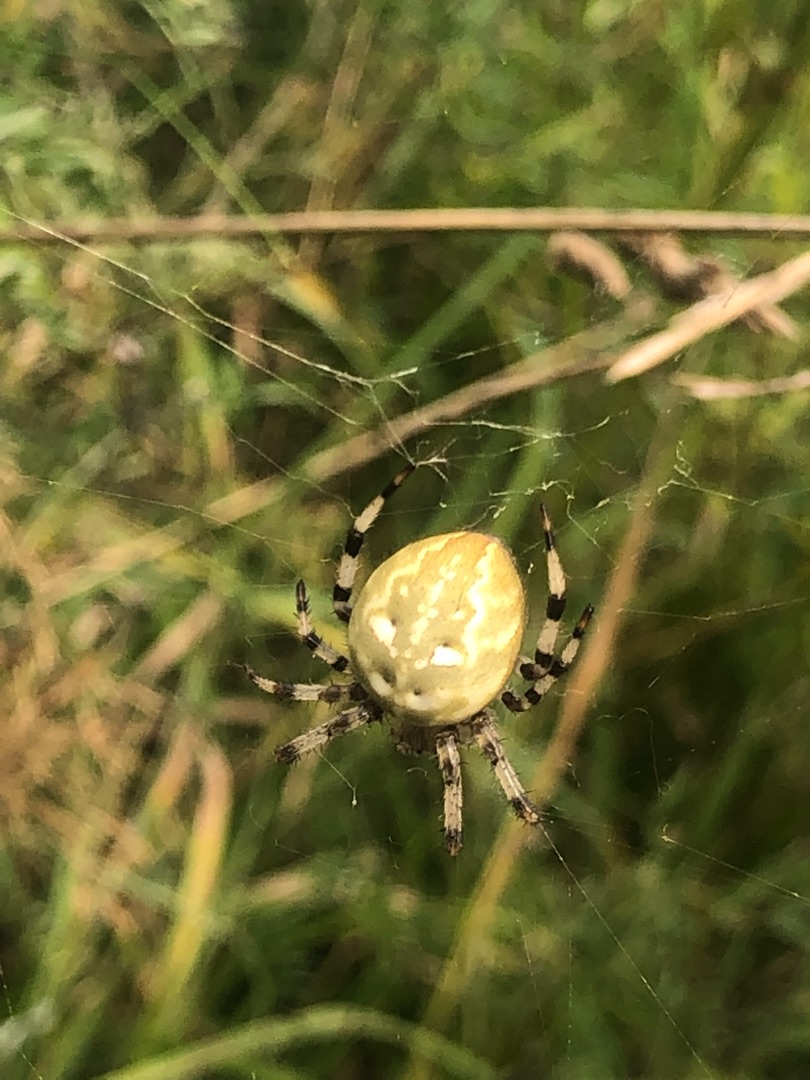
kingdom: Animalia
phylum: Arthropoda
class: Arachnida
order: Araneae
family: Araneidae
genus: Araneus
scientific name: Araneus quadratus
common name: Kvadratedderkop
